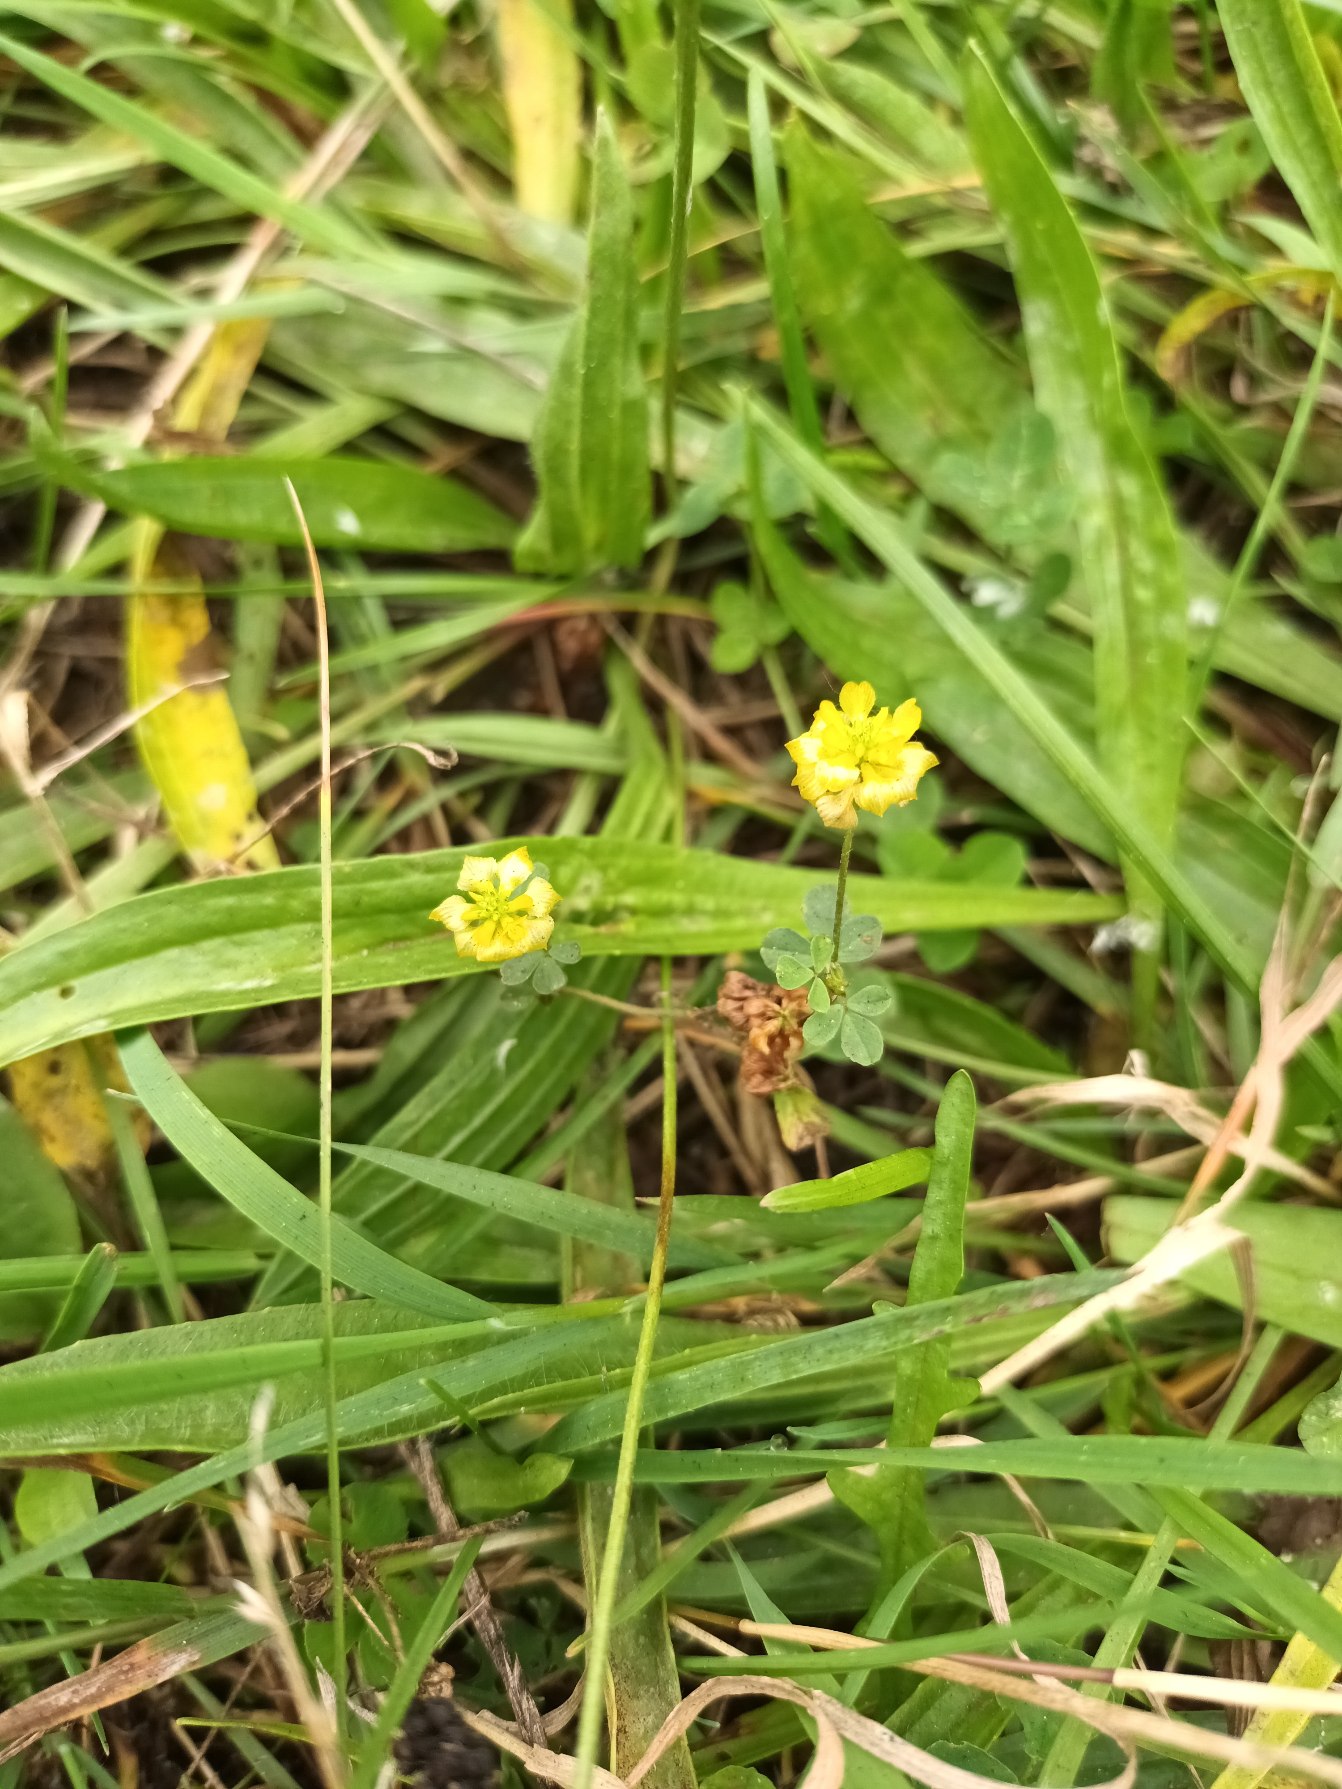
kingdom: Plantae
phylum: Tracheophyta
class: Magnoliopsida
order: Fabales
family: Fabaceae
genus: Trifolium
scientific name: Trifolium campestre
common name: Gul kløver
